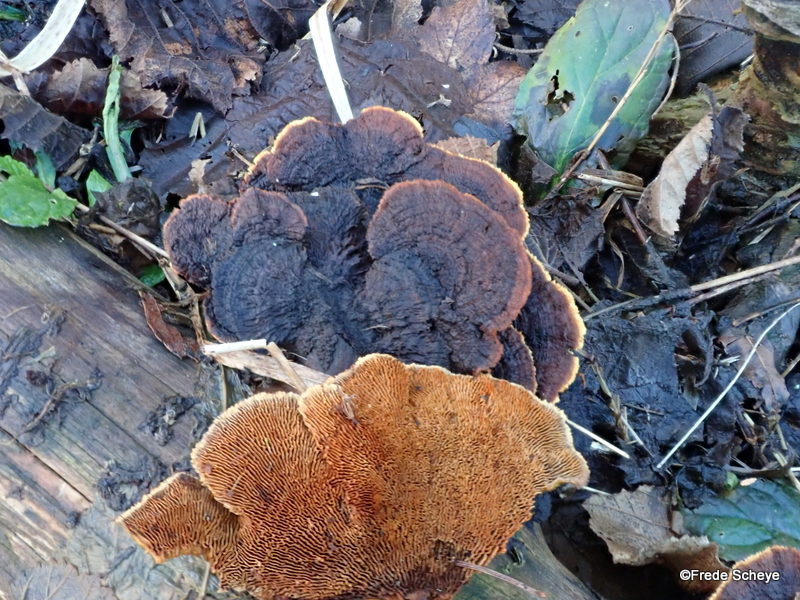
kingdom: Fungi
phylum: Basidiomycota
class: Agaricomycetes
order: Gloeophyllales
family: Gloeophyllaceae
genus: Gloeophyllum
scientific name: Gloeophyllum sepiarium
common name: fyrre-korkhat
